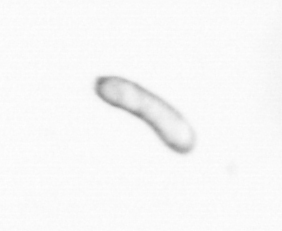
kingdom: Chromista
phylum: Ochrophyta
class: Bacillariophyceae
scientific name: Bacillariophyceae
